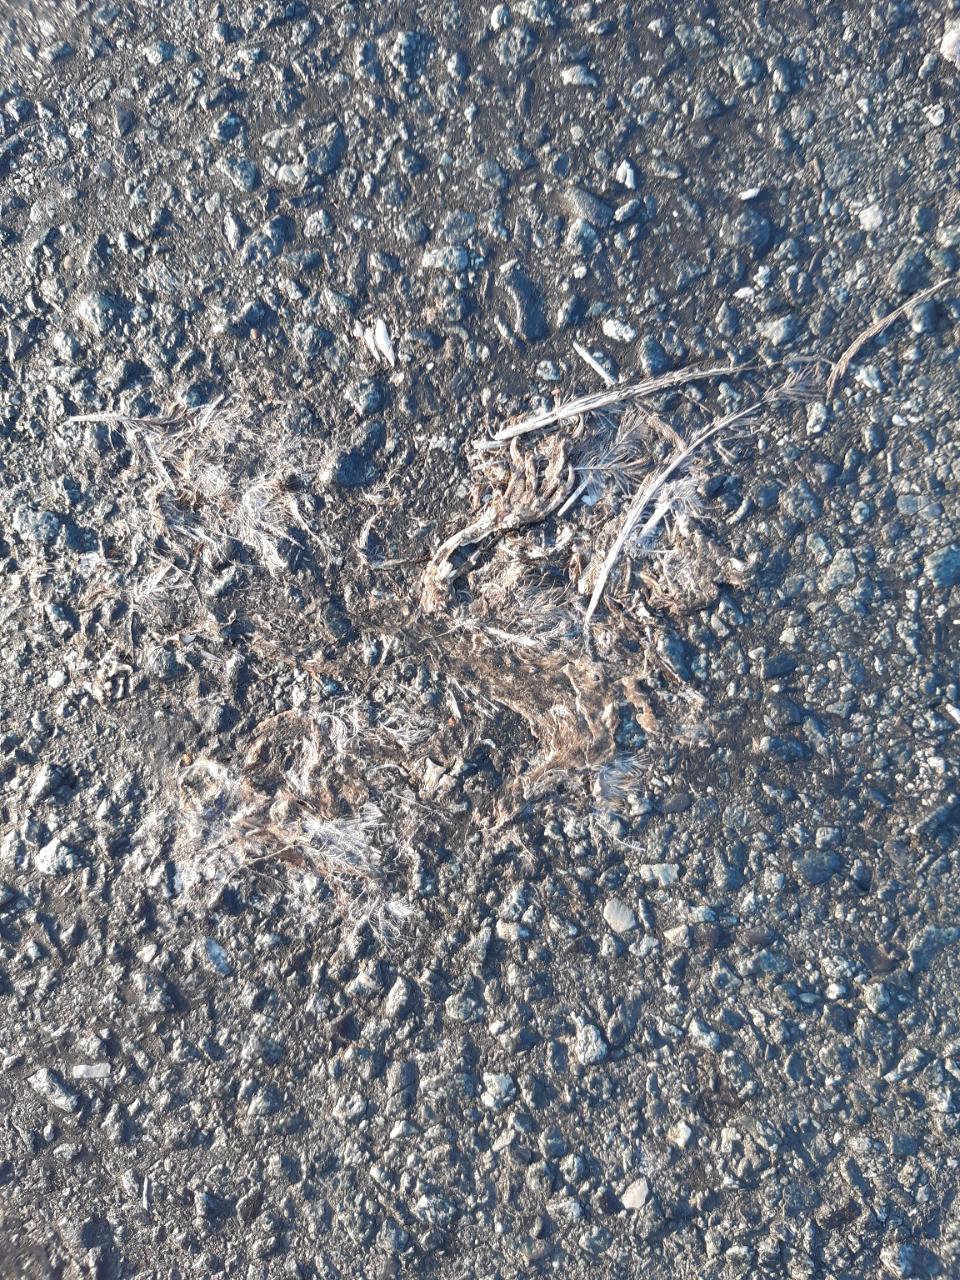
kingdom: Animalia
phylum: Chordata
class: Aves
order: Passeriformes
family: Passeridae
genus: Passer
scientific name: Passer
